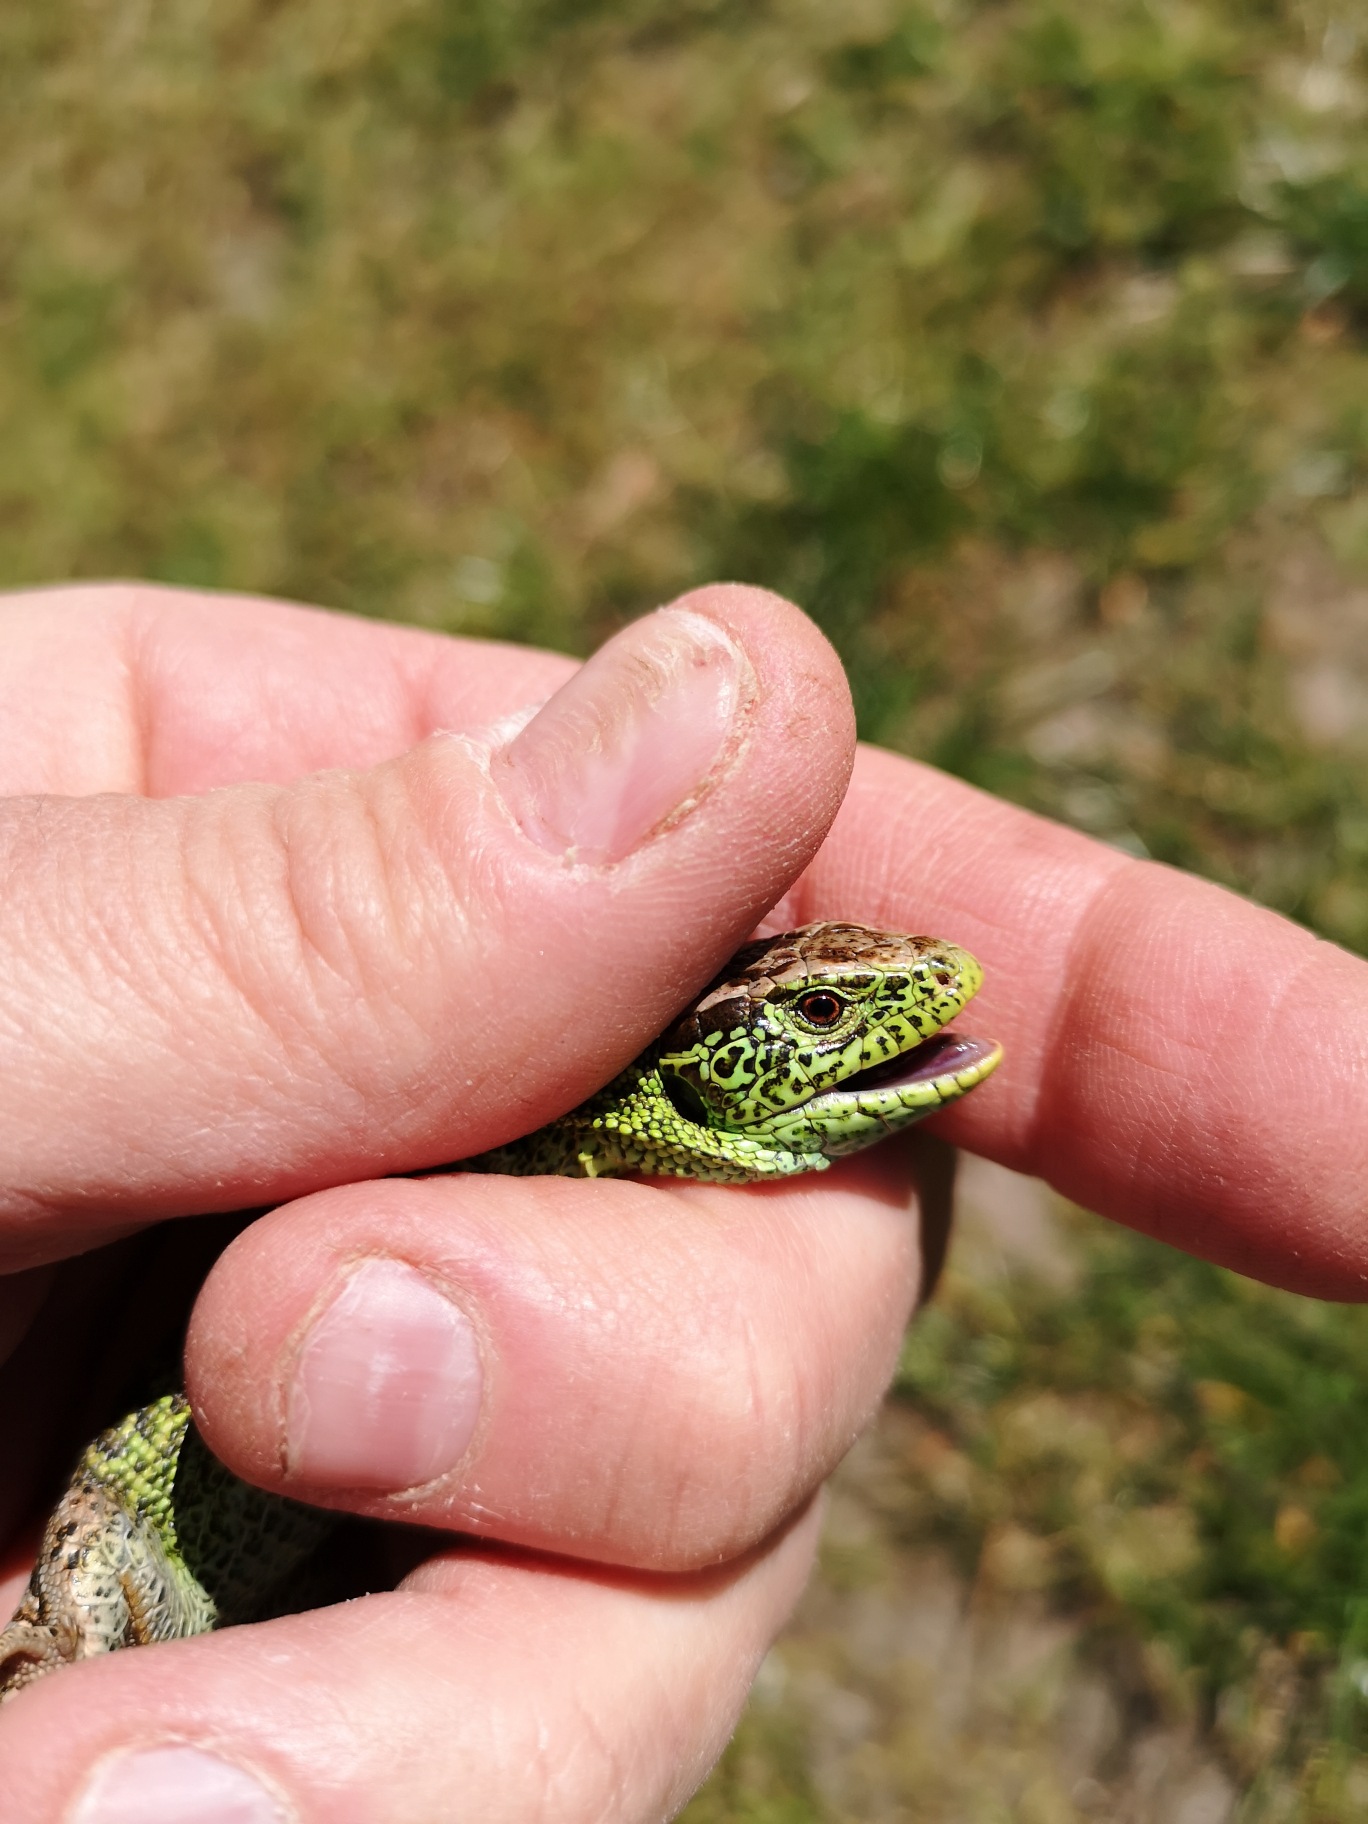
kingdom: Animalia
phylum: Chordata
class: Squamata
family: Lacertidae
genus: Lacerta
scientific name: Lacerta agilis
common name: Markfirben
